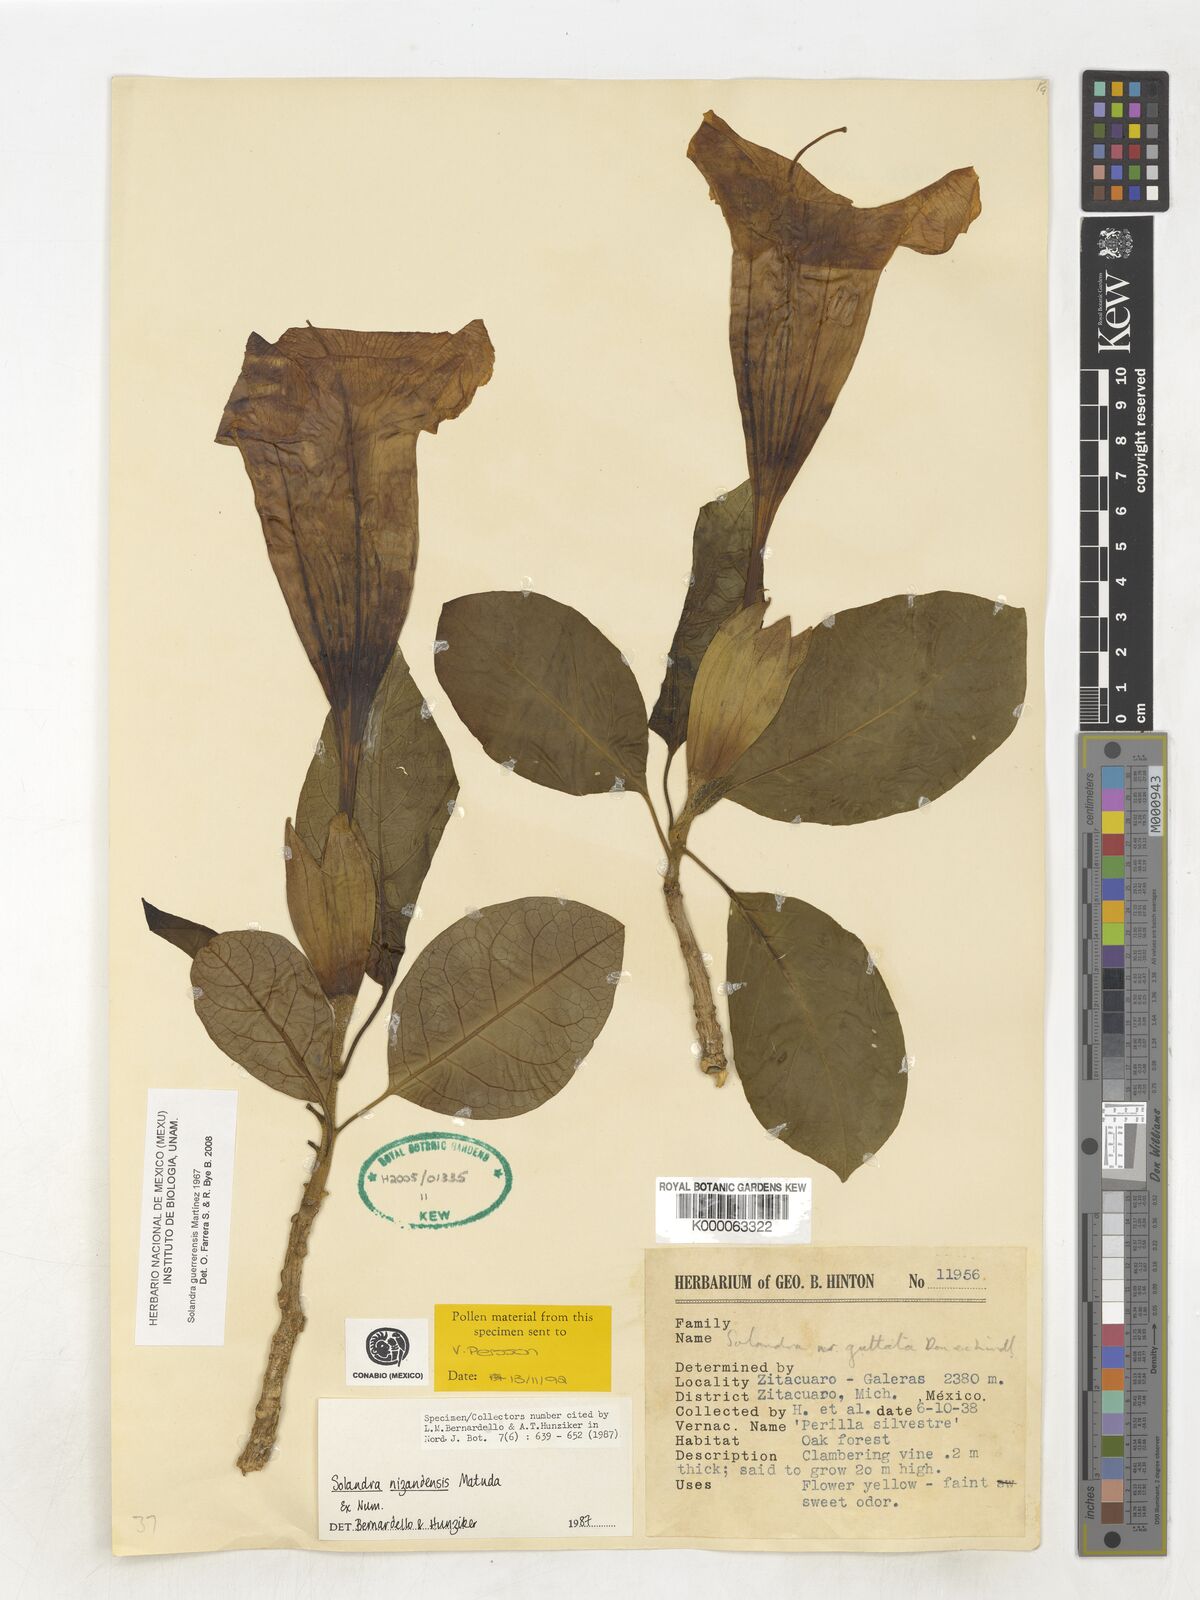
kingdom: Plantae
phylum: Tracheophyta
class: Magnoliopsida
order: Solanales
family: Solanaceae
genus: Solandra
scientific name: Solandra
